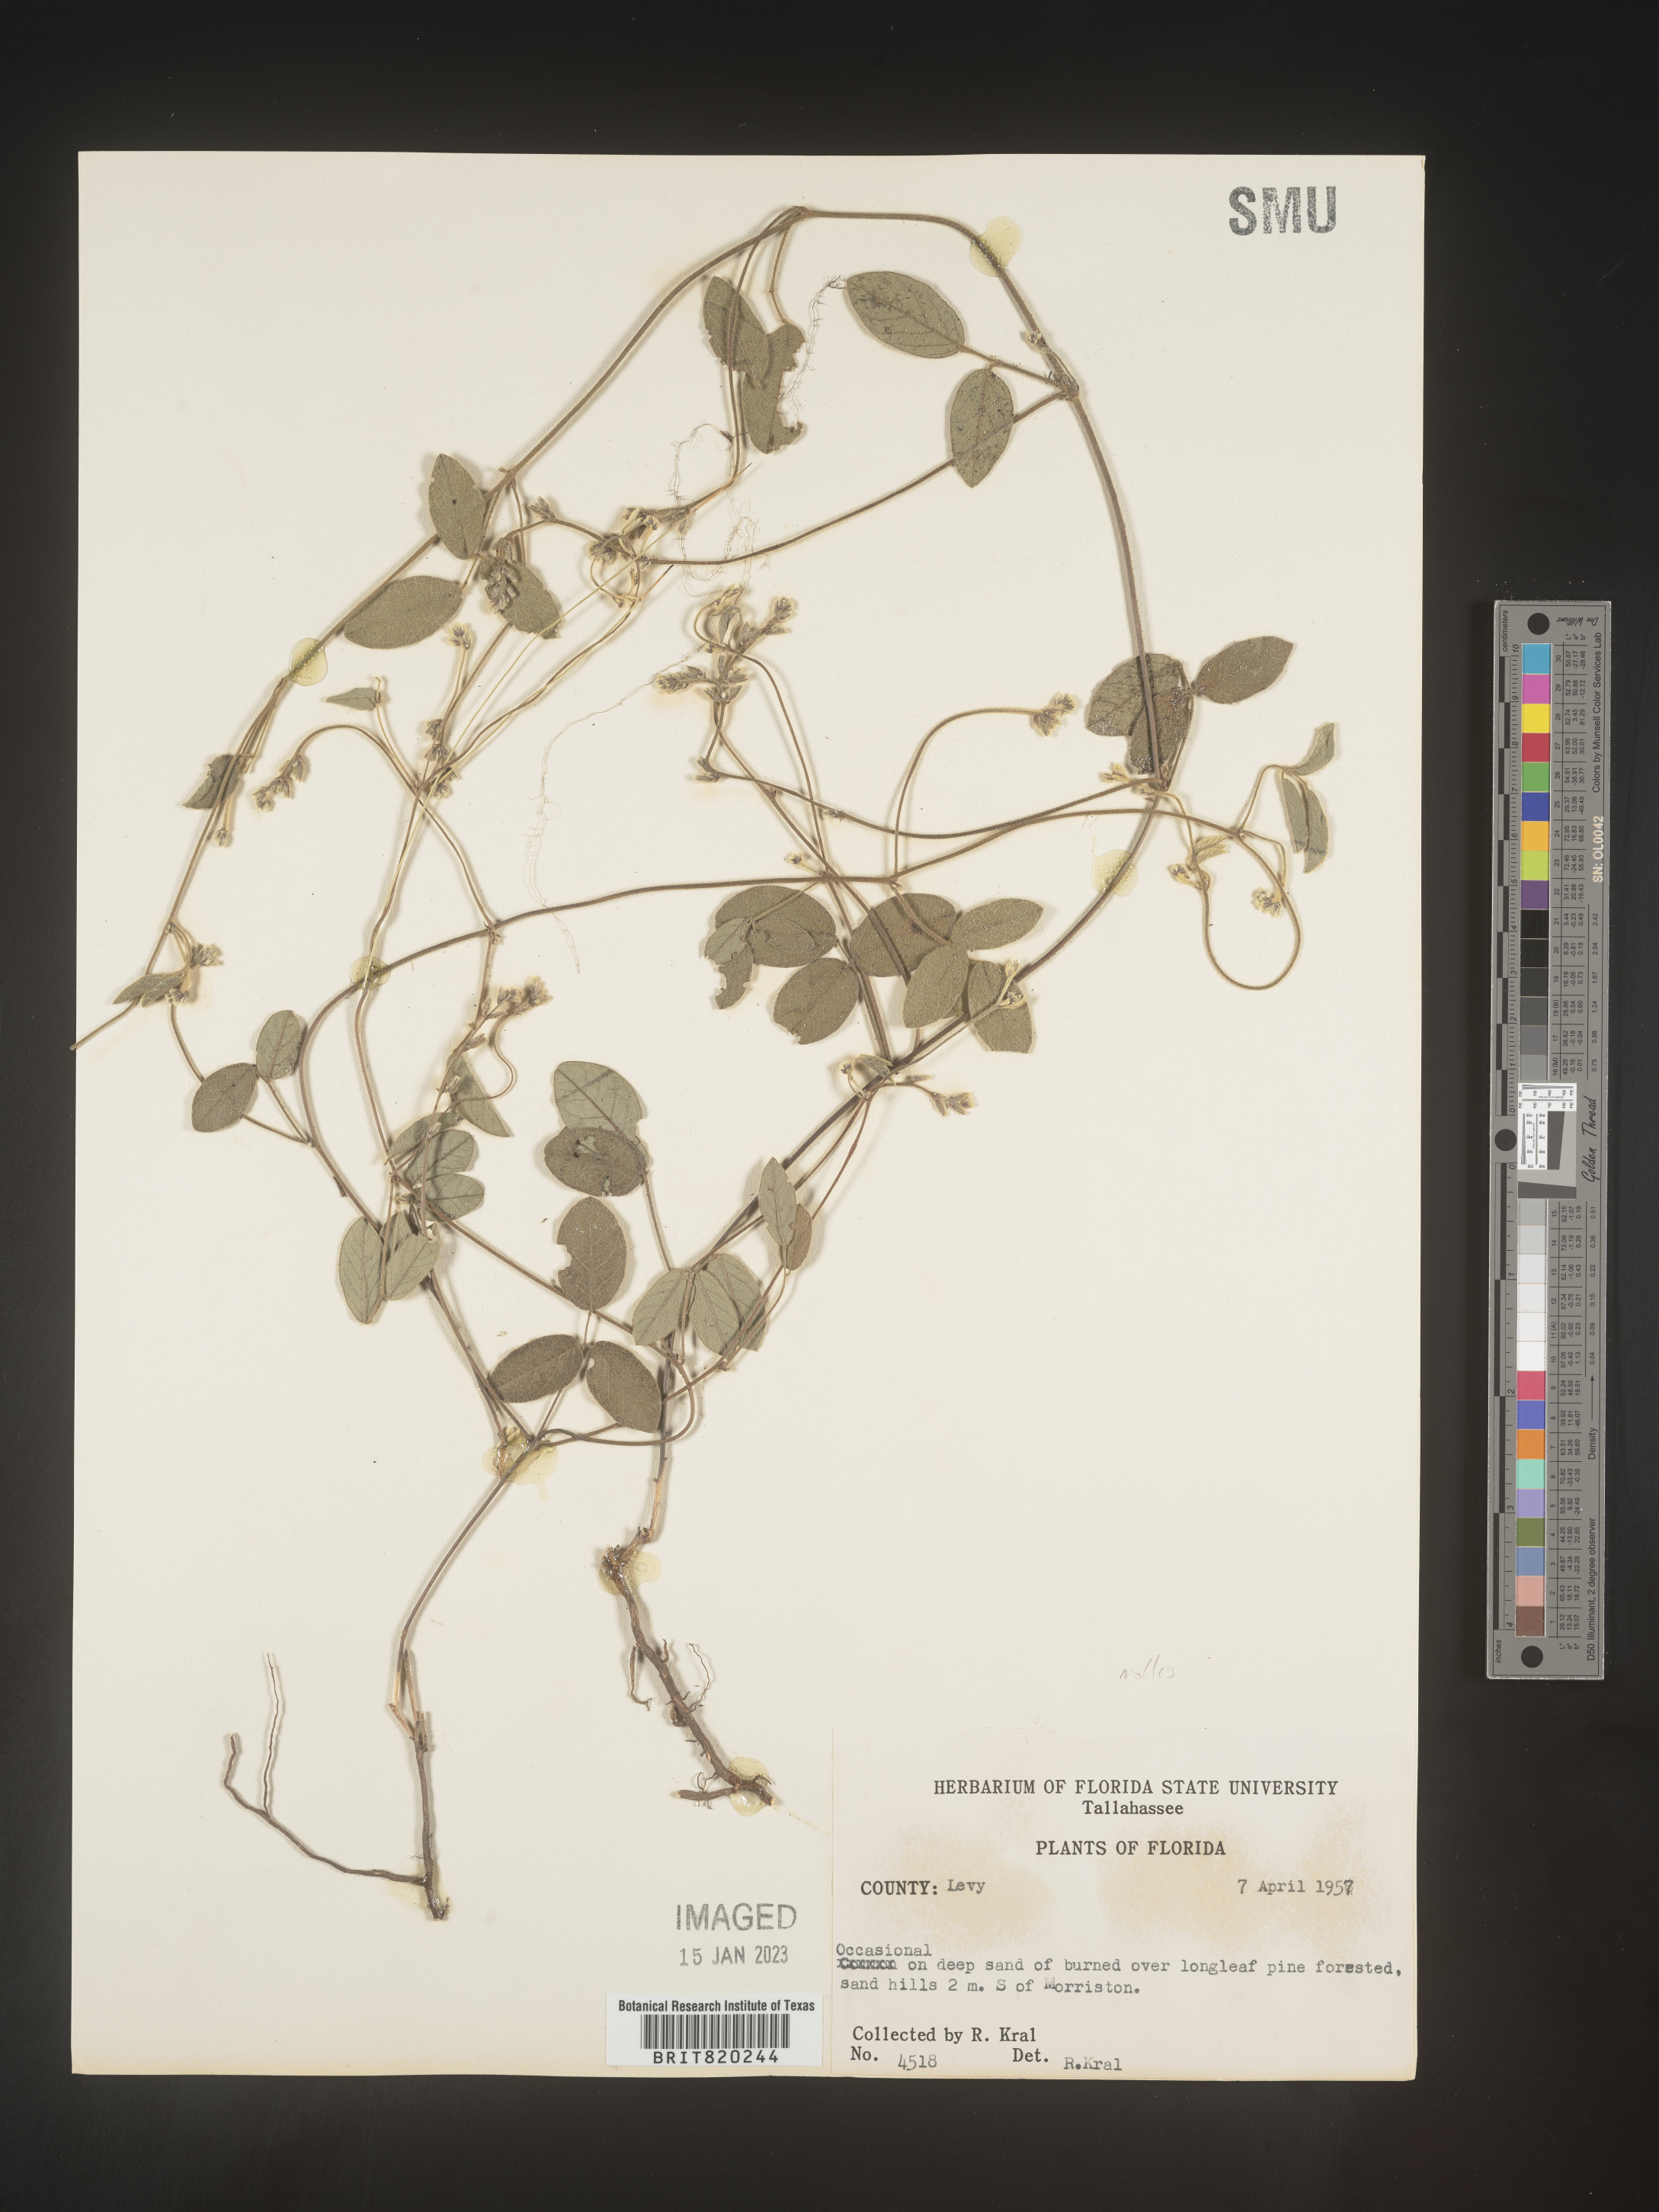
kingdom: Plantae
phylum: Tracheophyta
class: Magnoliopsida
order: Fabales
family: Fabaceae
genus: Galactia
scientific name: Galactia mollis
